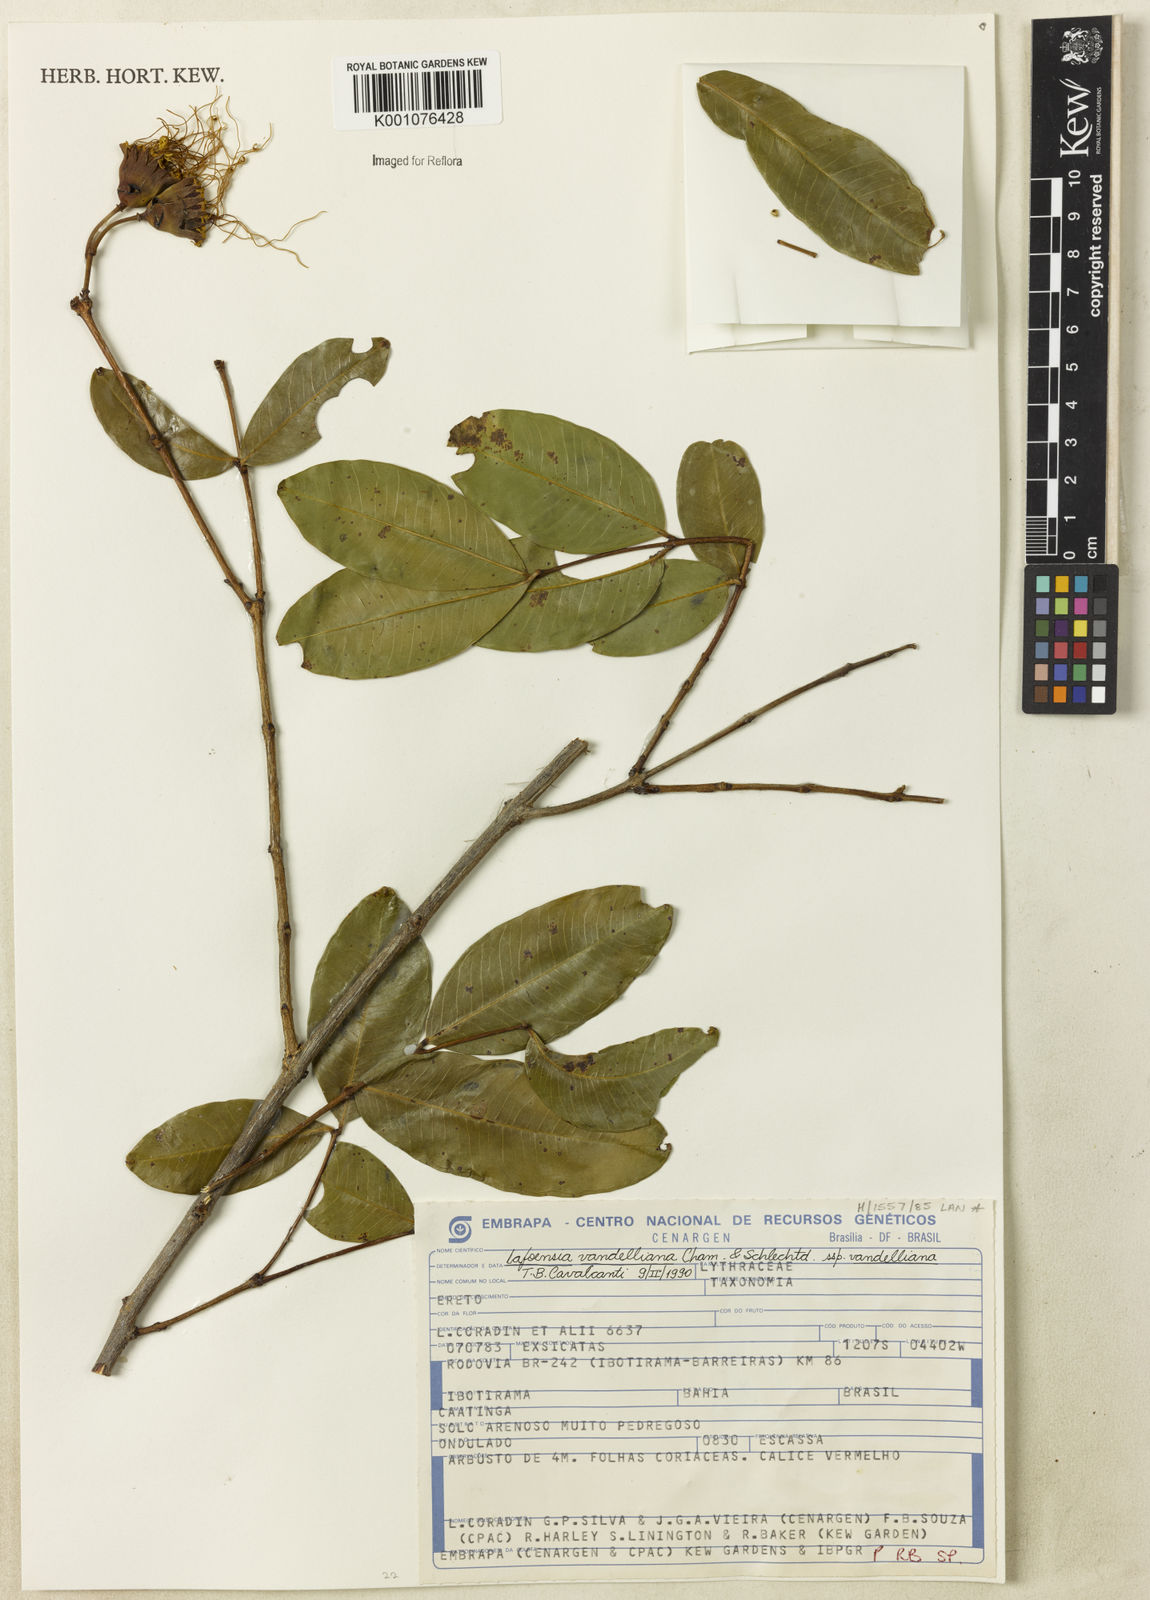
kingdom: Plantae
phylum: Tracheophyta
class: Magnoliopsida
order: Myrtales
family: Lythraceae
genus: Lafoensia
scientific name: Lafoensia vandelliana
